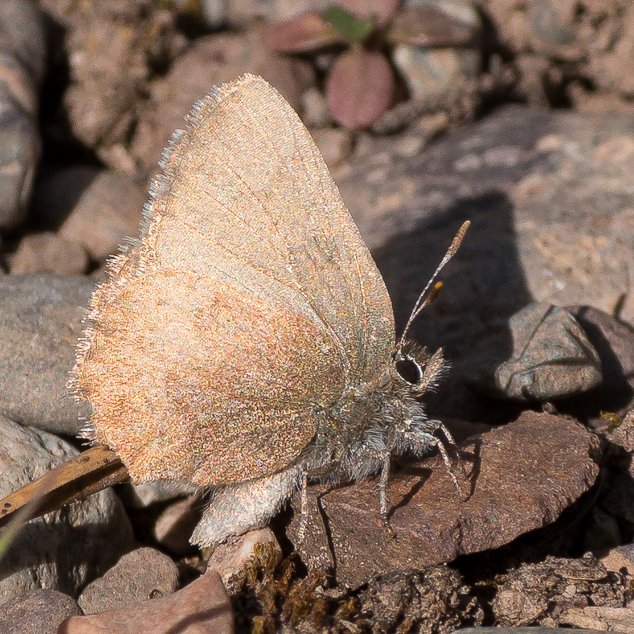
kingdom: Animalia
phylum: Arthropoda
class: Insecta
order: Lepidoptera
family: Lycaenidae
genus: Incisalia
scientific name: Incisalia irioides
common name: Brown Elfin
